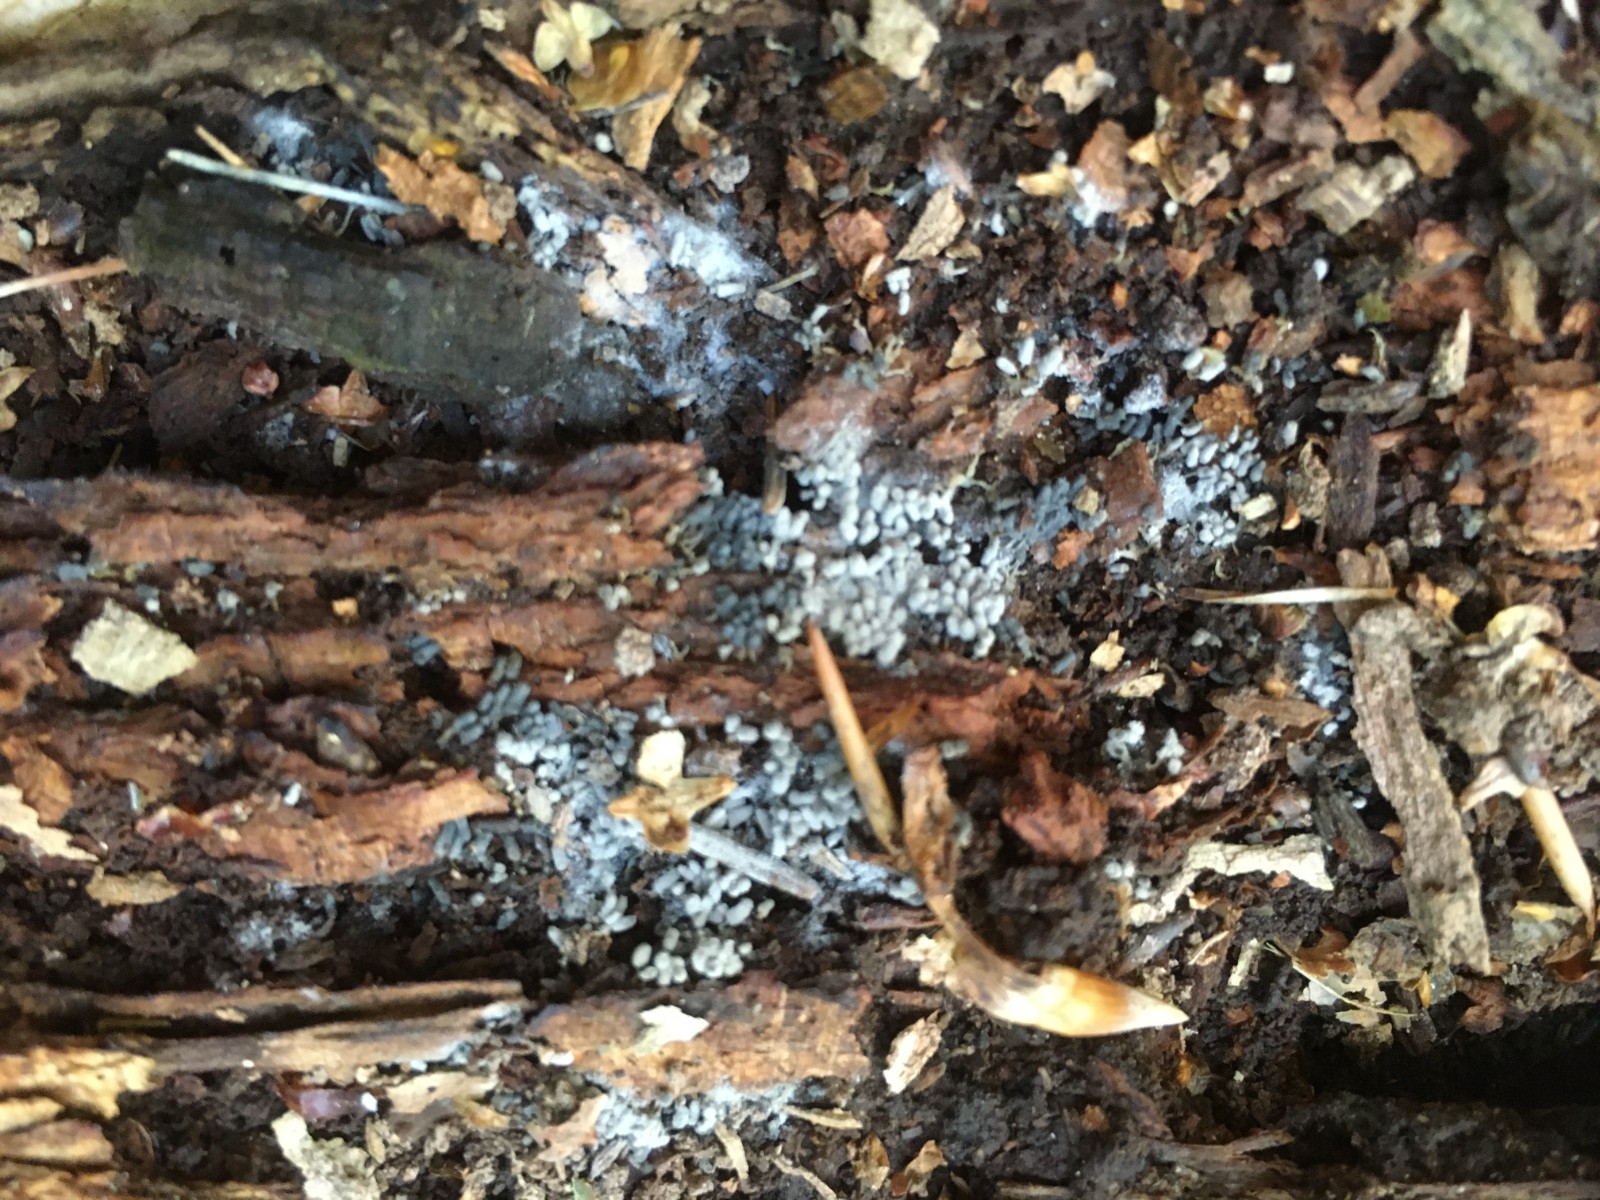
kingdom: Protozoa
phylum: Mycetozoa
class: Myxomycetes
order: Trichiales
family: Arcyriaceae
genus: Arcyria
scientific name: Arcyria cinerea
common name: White carnival candy slime mold
